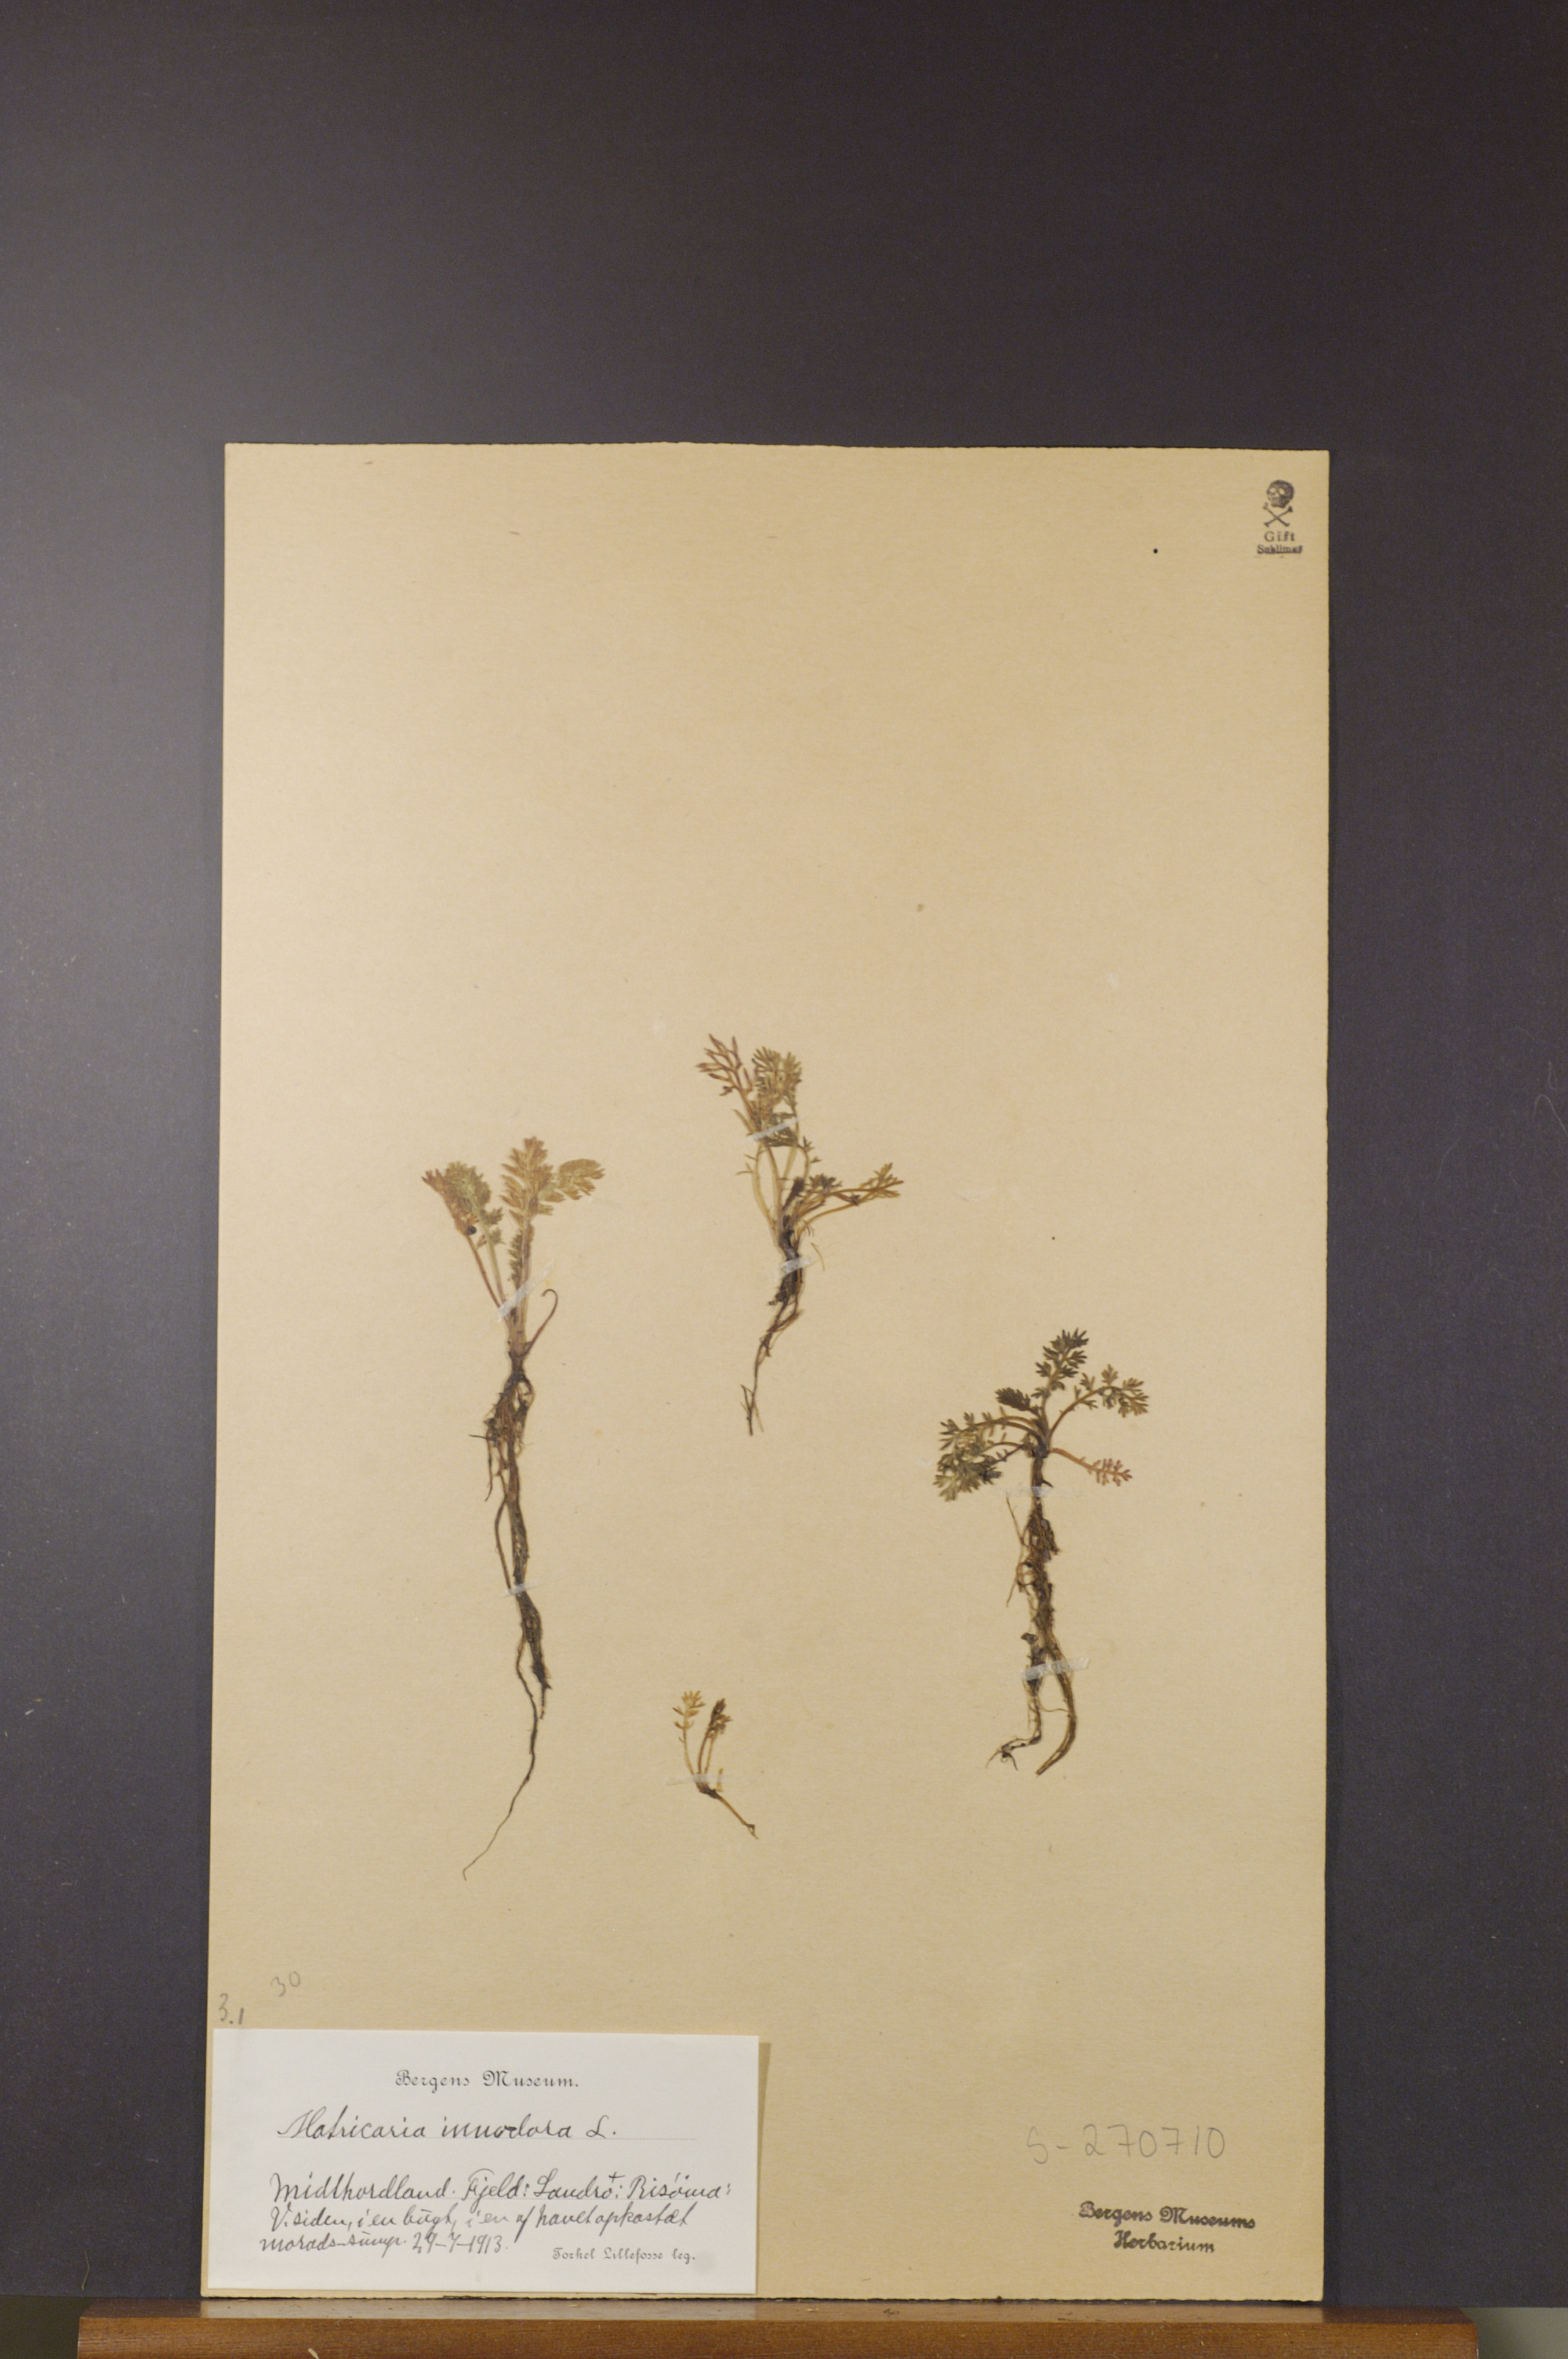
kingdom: Plantae
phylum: Tracheophyta
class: Magnoliopsida
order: Asterales
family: Asteraceae
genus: Tripleurospermum
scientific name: Tripleurospermum inodorum
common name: Scentless mayweed
